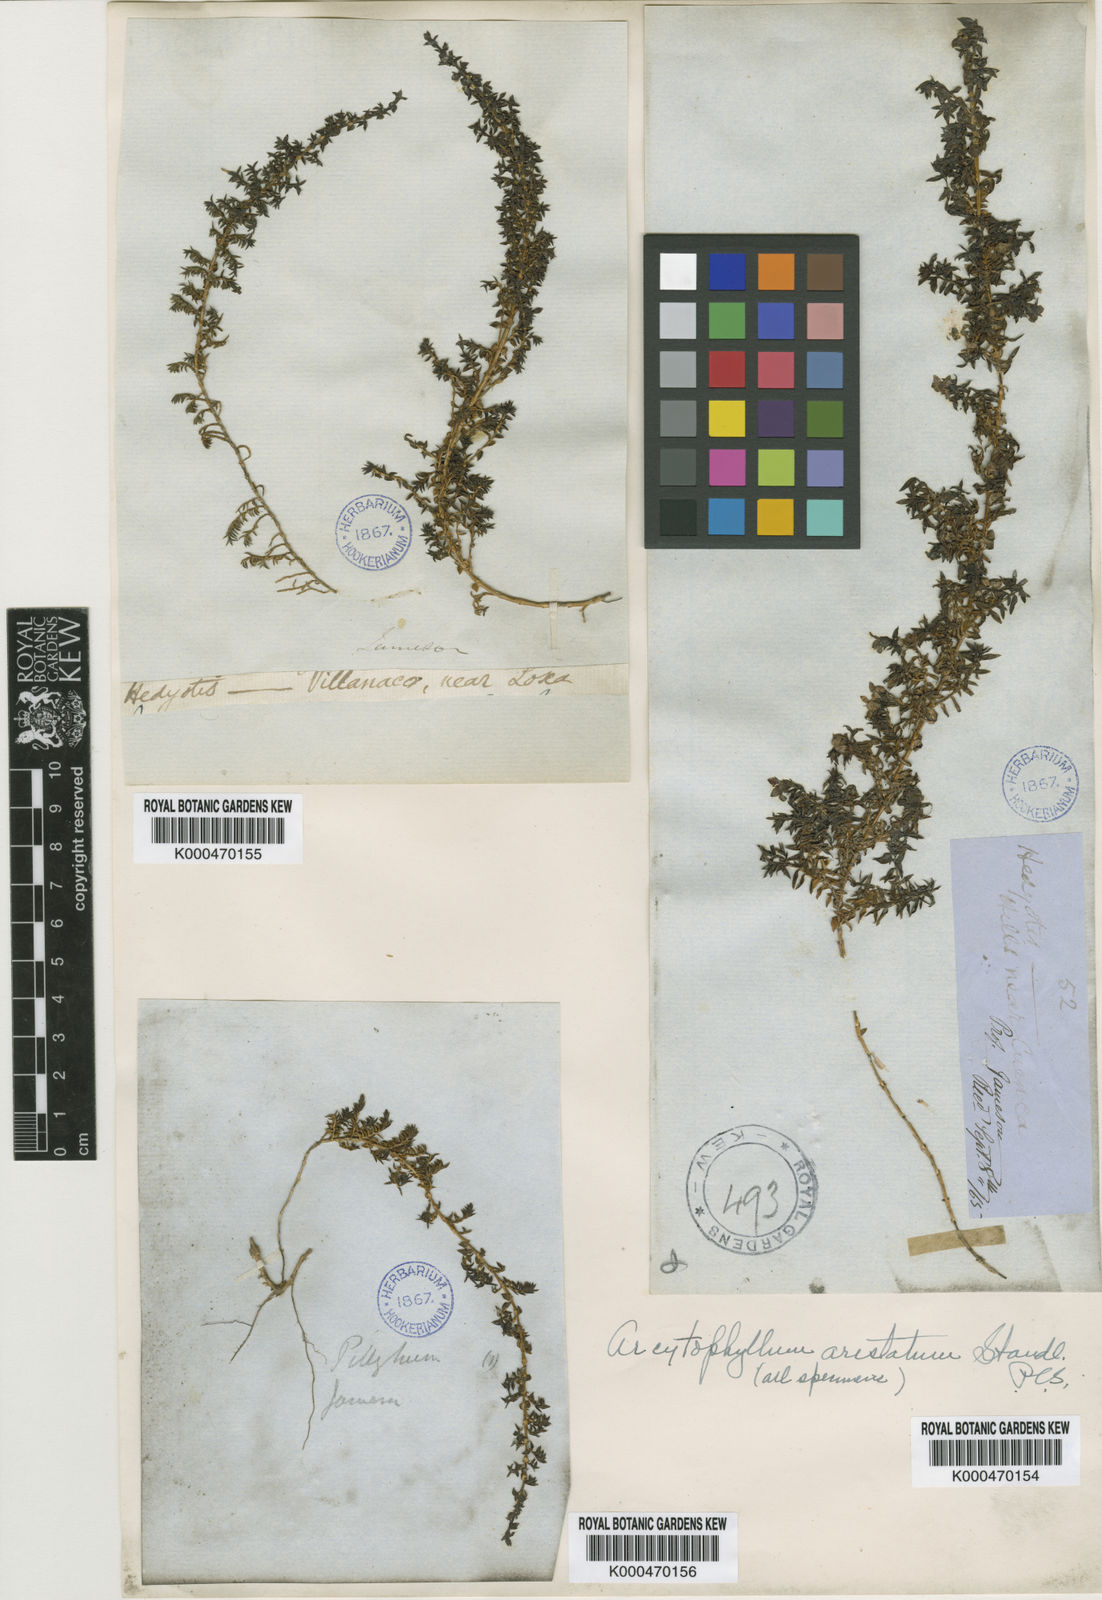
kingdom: Plantae
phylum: Tracheophyta
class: Magnoliopsida
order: Gentianales
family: Rubiaceae
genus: Arcytophyllum
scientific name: Arcytophyllum aristatum
